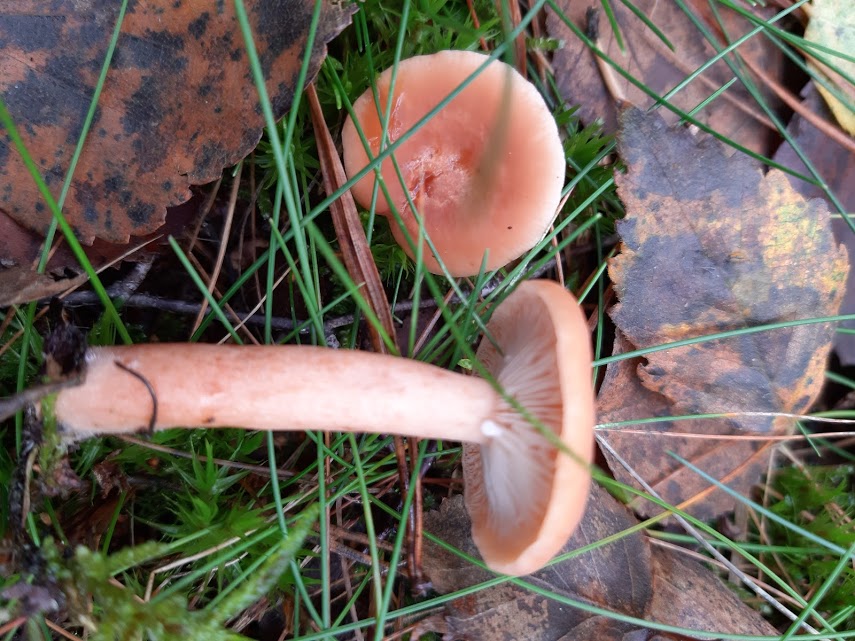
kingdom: Fungi
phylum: Basidiomycota
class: Agaricomycetes
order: Russulales
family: Russulaceae
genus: Lactarius
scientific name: Lactarius
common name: mælkehat
